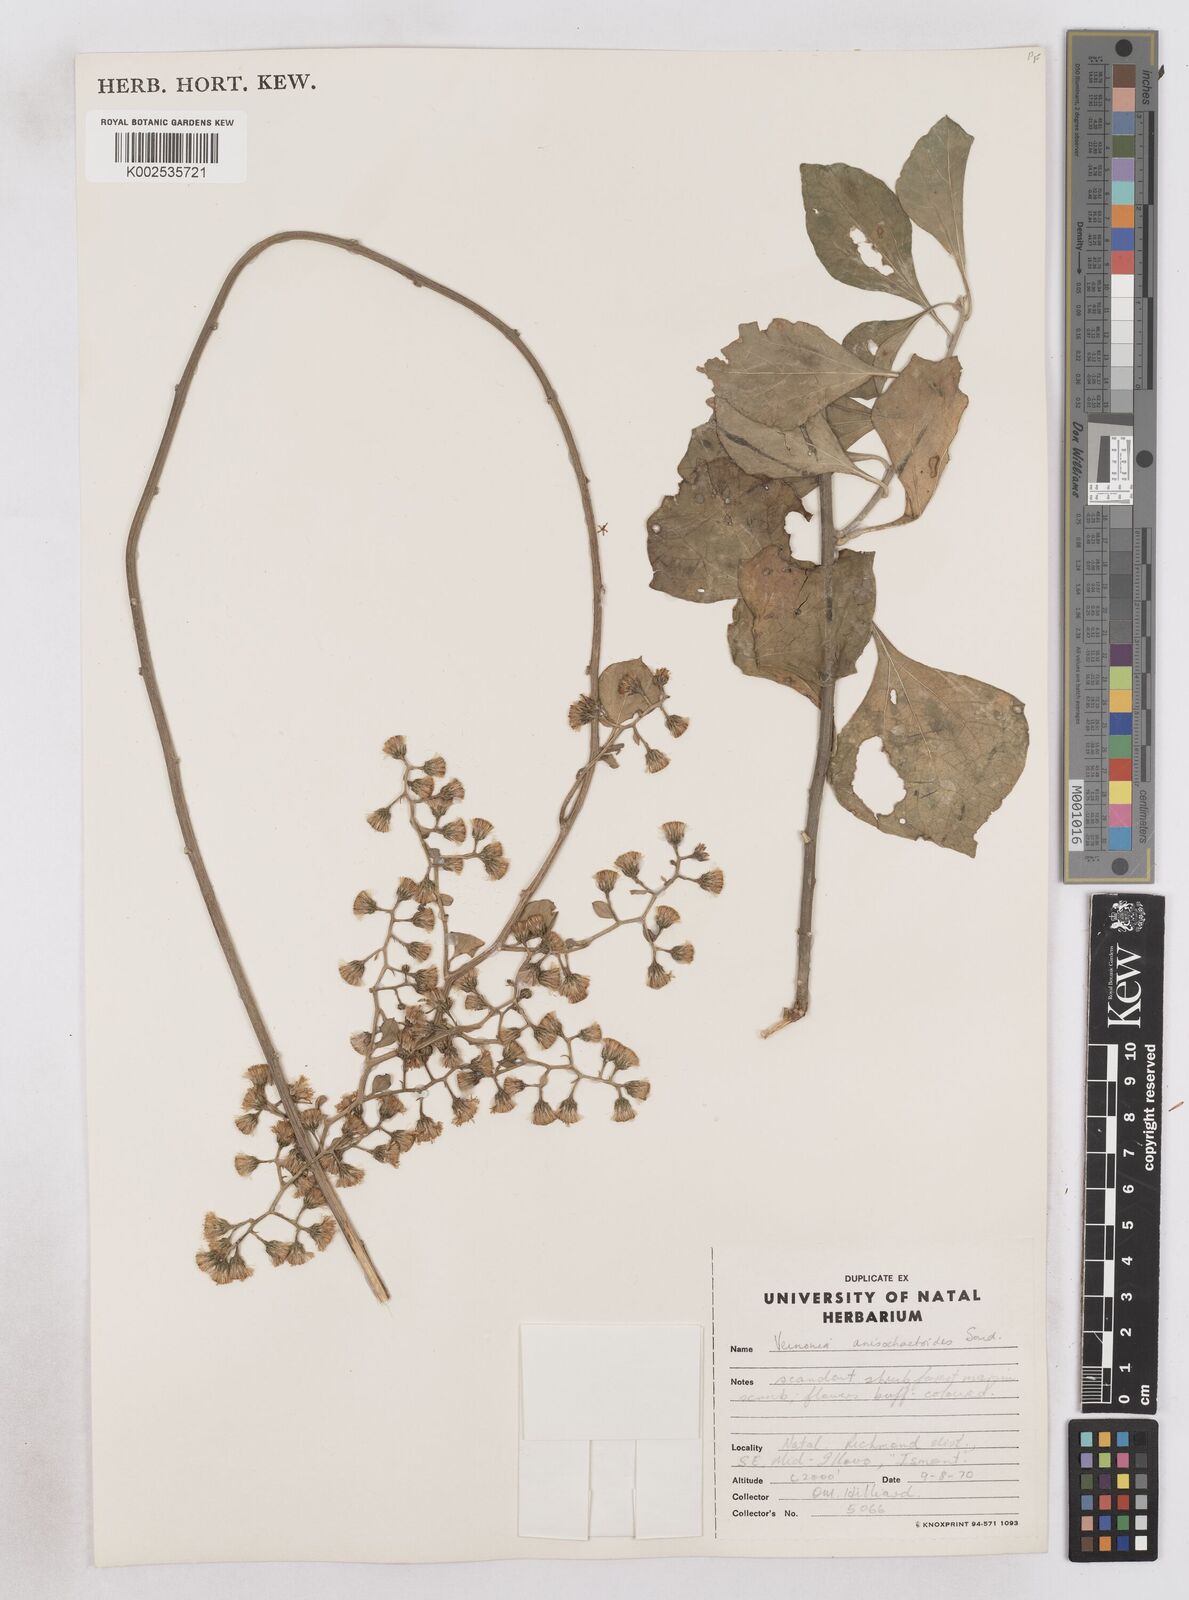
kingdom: Plantae
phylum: Tracheophyta
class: Magnoliopsida
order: Asterales
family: Asteraceae
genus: Distephanus
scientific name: Distephanus anisochaetoides
